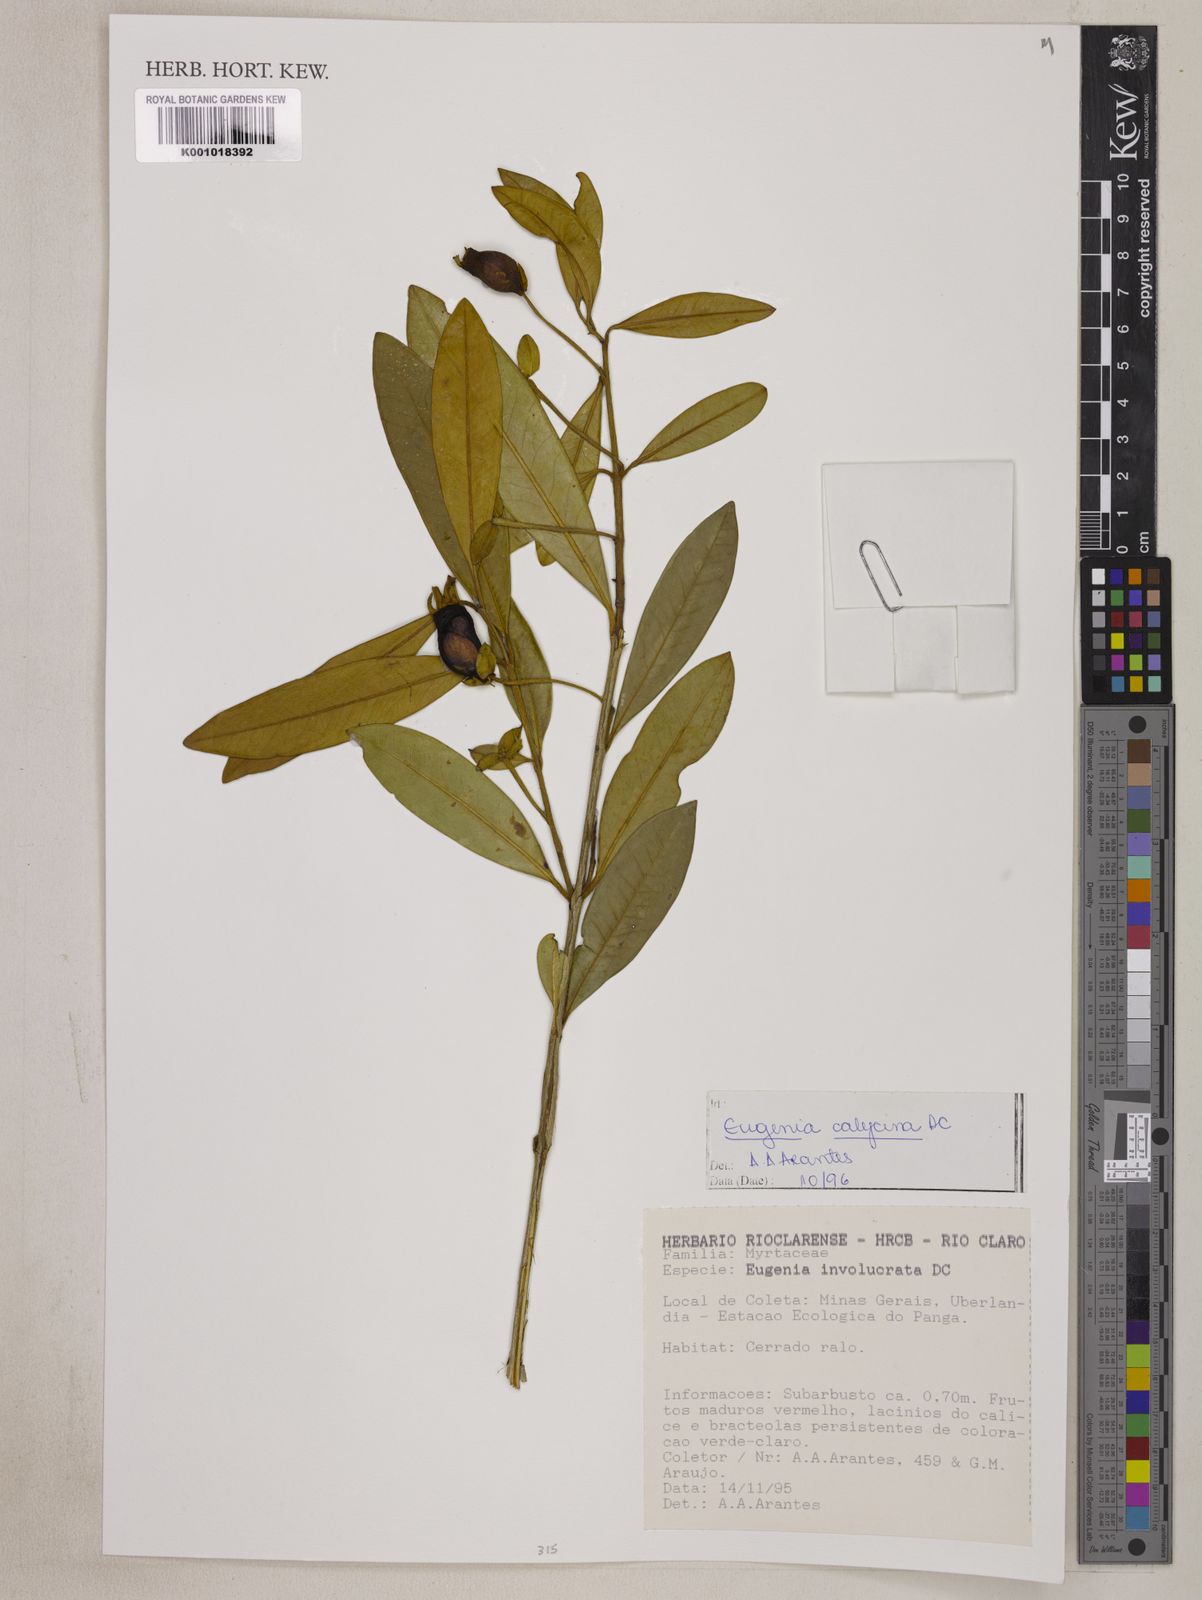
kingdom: Plantae
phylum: Tracheophyta
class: Magnoliopsida
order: Myrtales
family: Myrtaceae
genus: Eugenia
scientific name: Eugenia calycina
